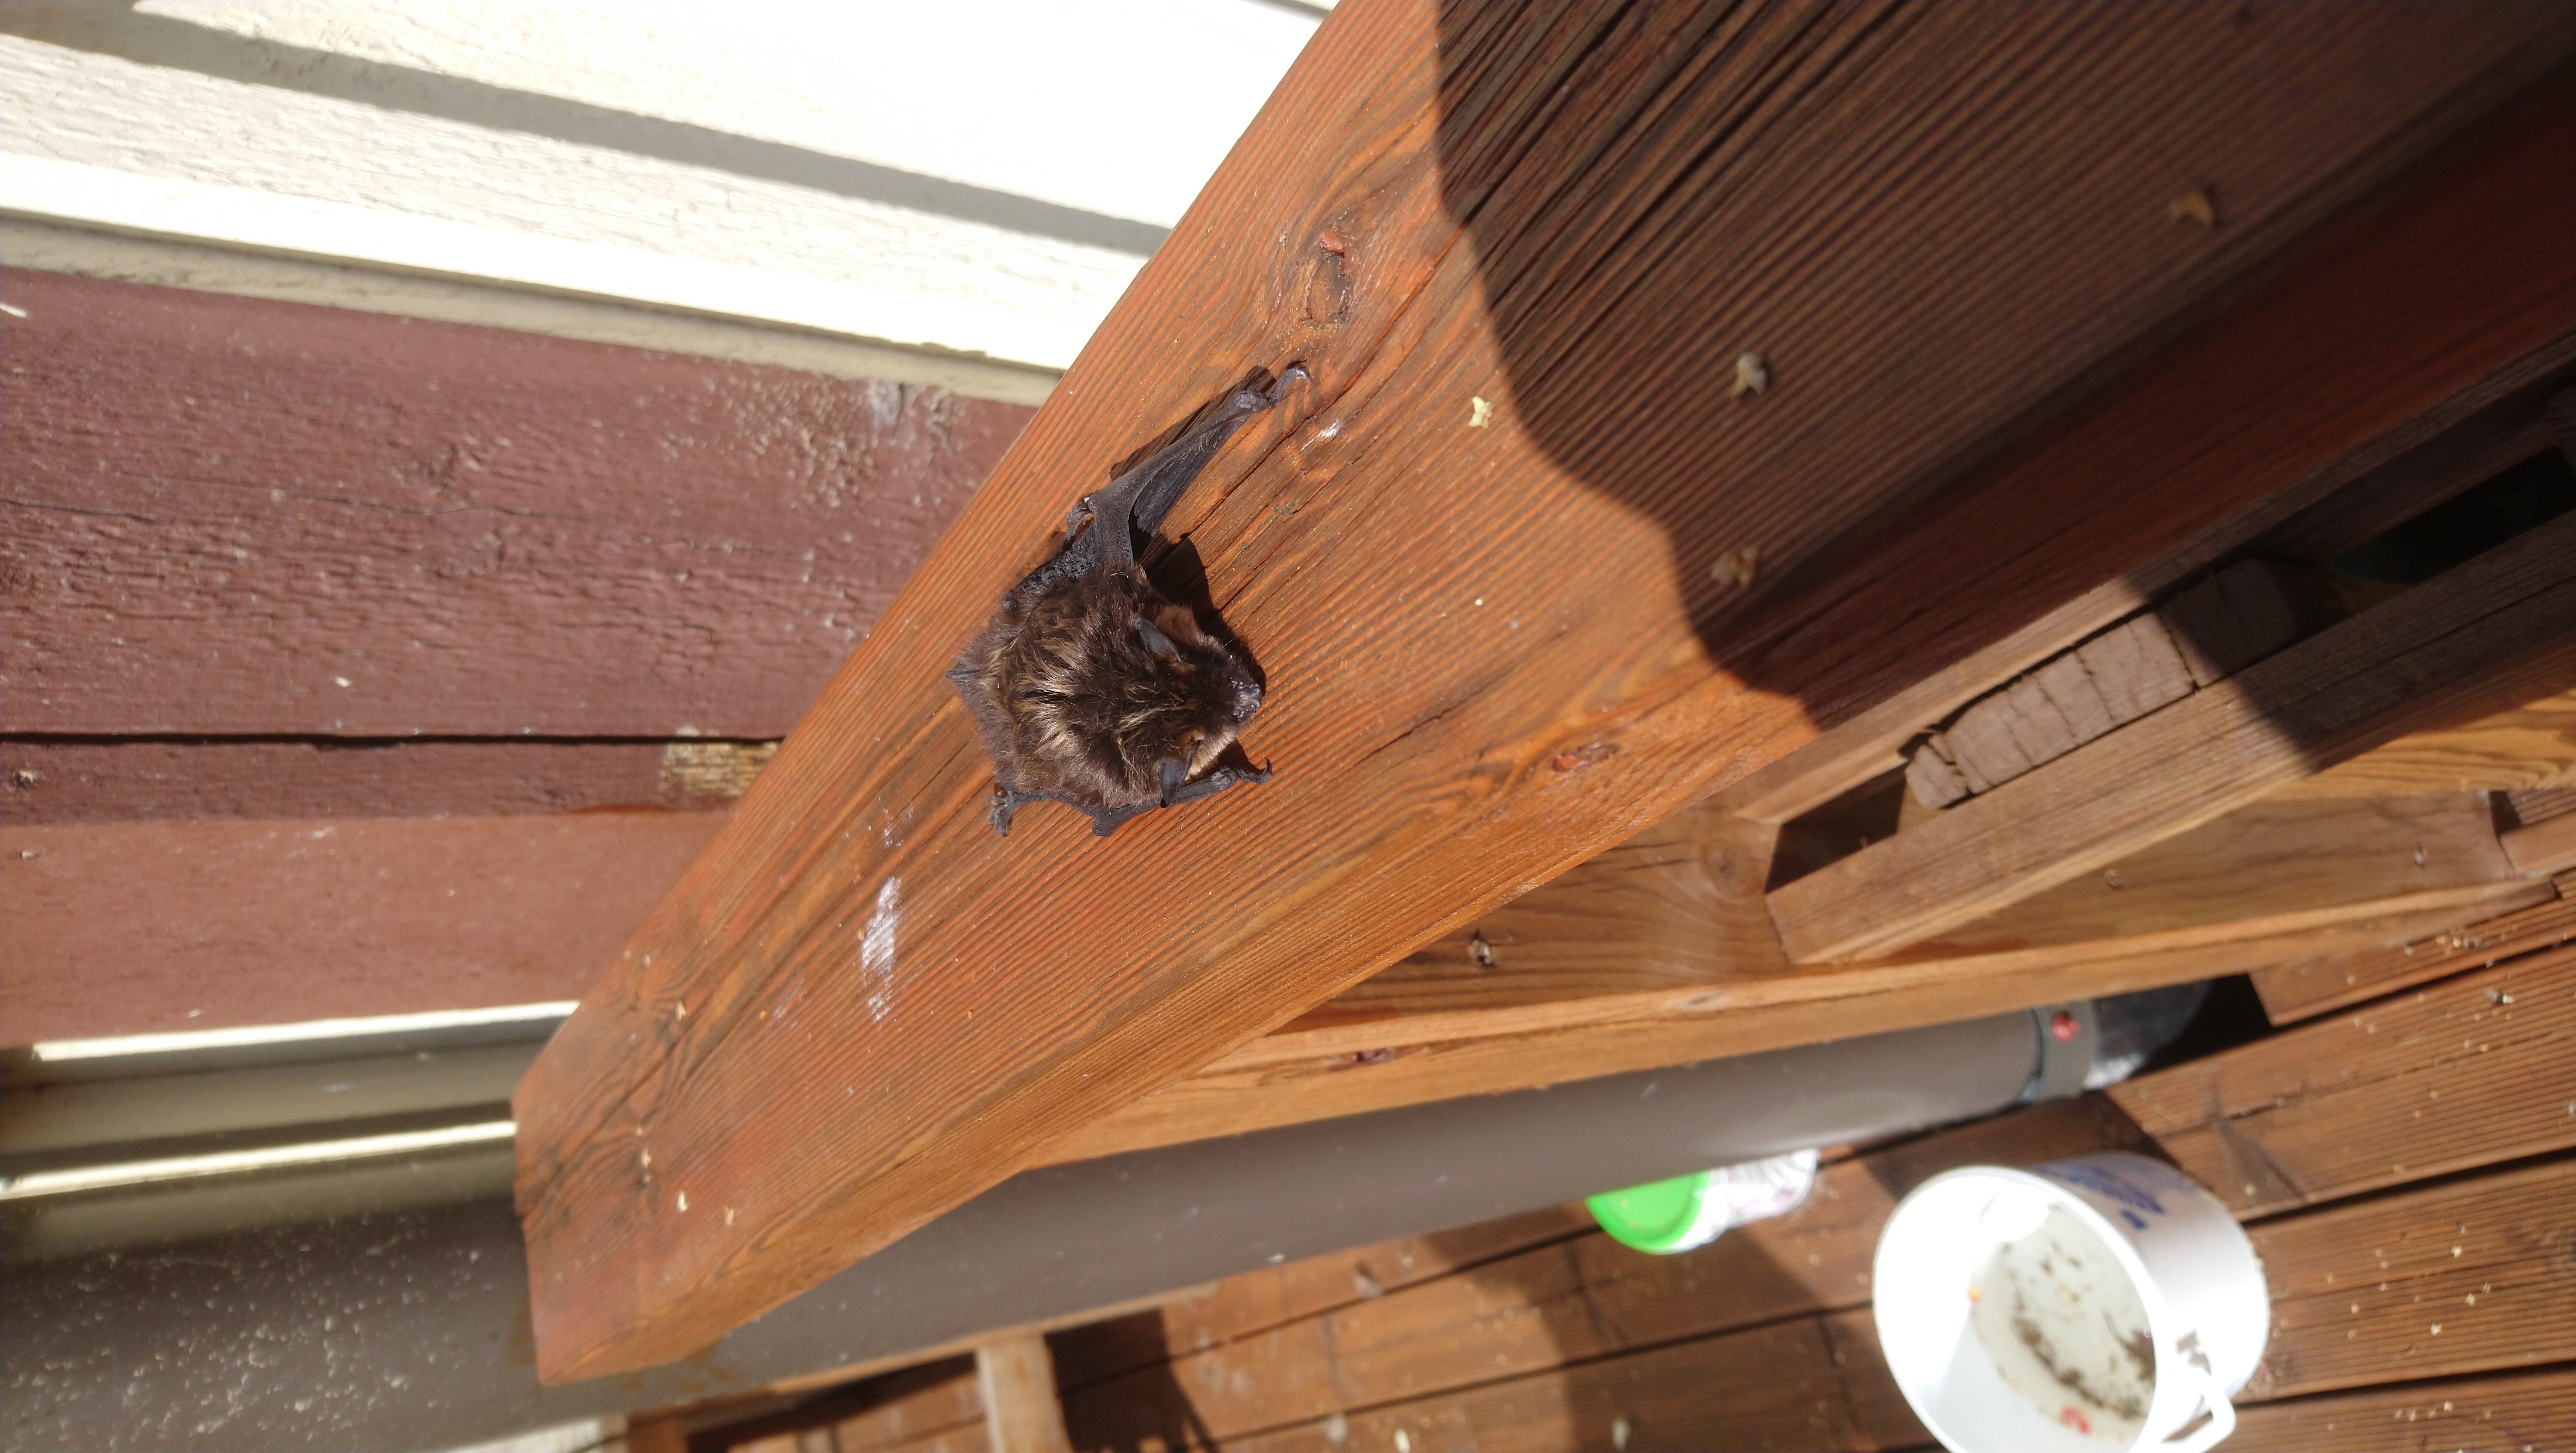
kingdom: Animalia
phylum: Chordata
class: Mammalia
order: Chiroptera
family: Vespertilionidae
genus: Eptesicus
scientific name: Eptesicus nilssonii
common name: Northern bat
